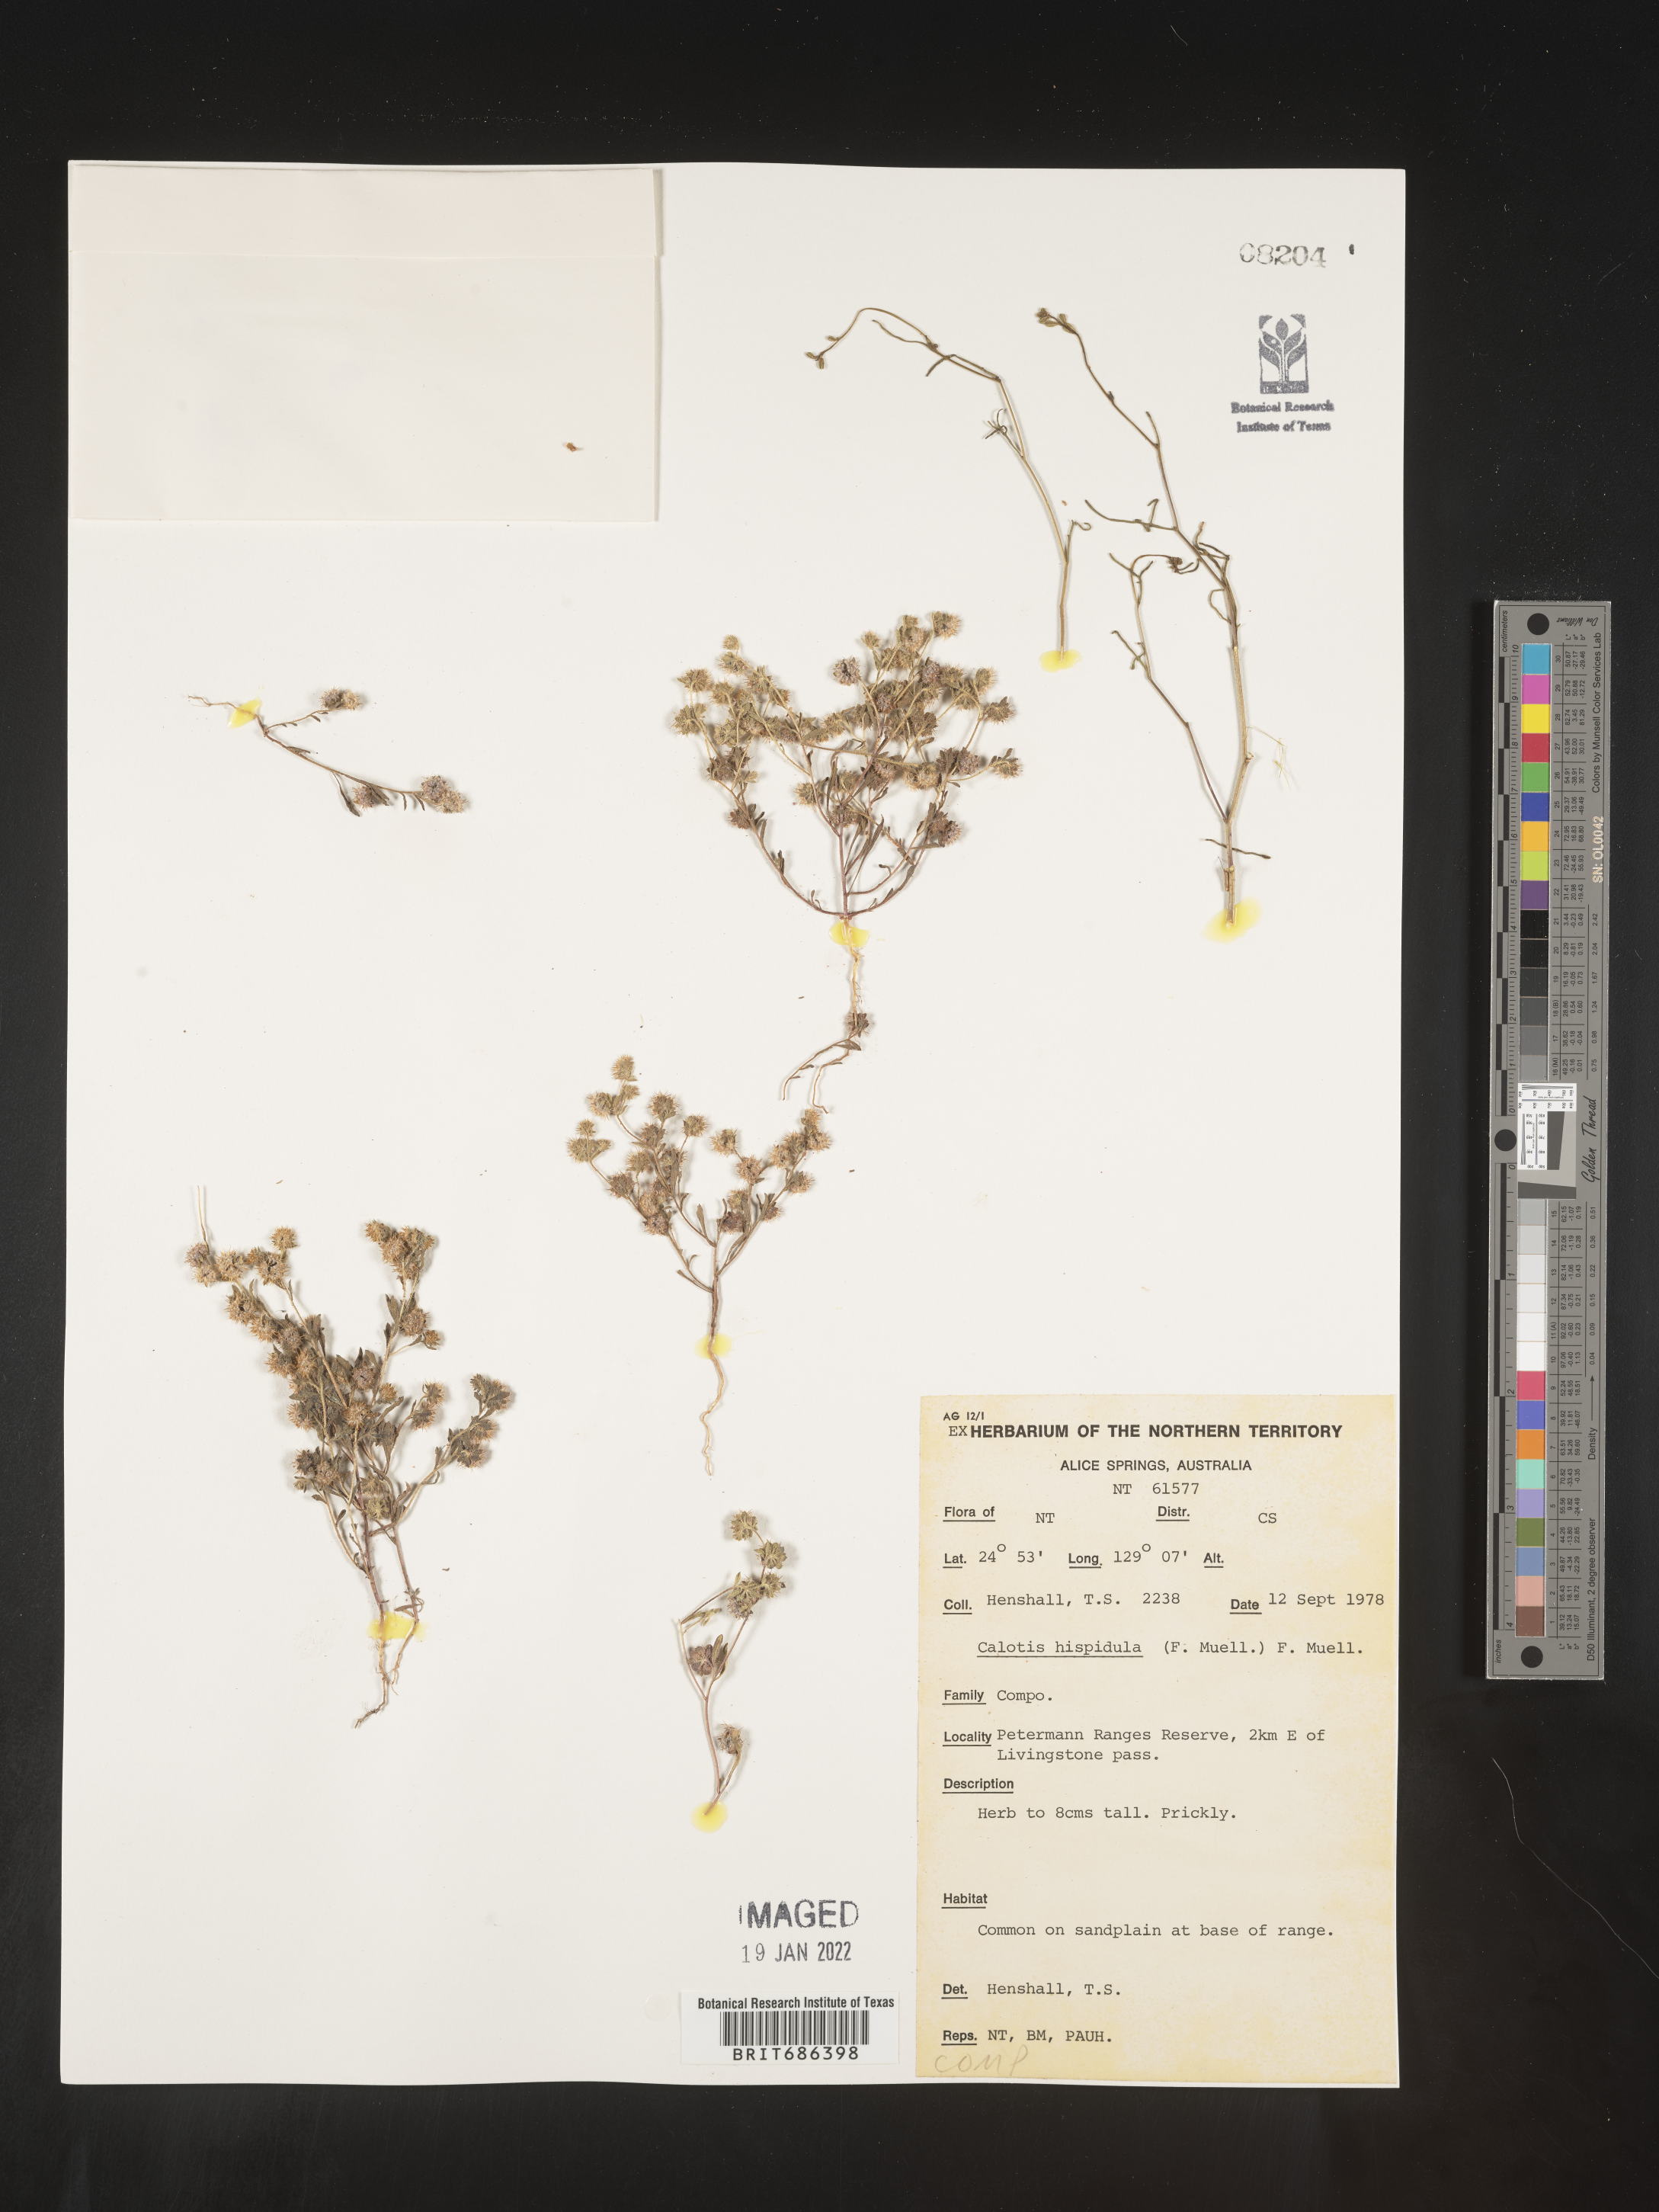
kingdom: Plantae
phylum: Tracheophyta
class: Magnoliopsida
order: Asterales
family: Asteraceae
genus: Calotis
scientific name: Calotis
